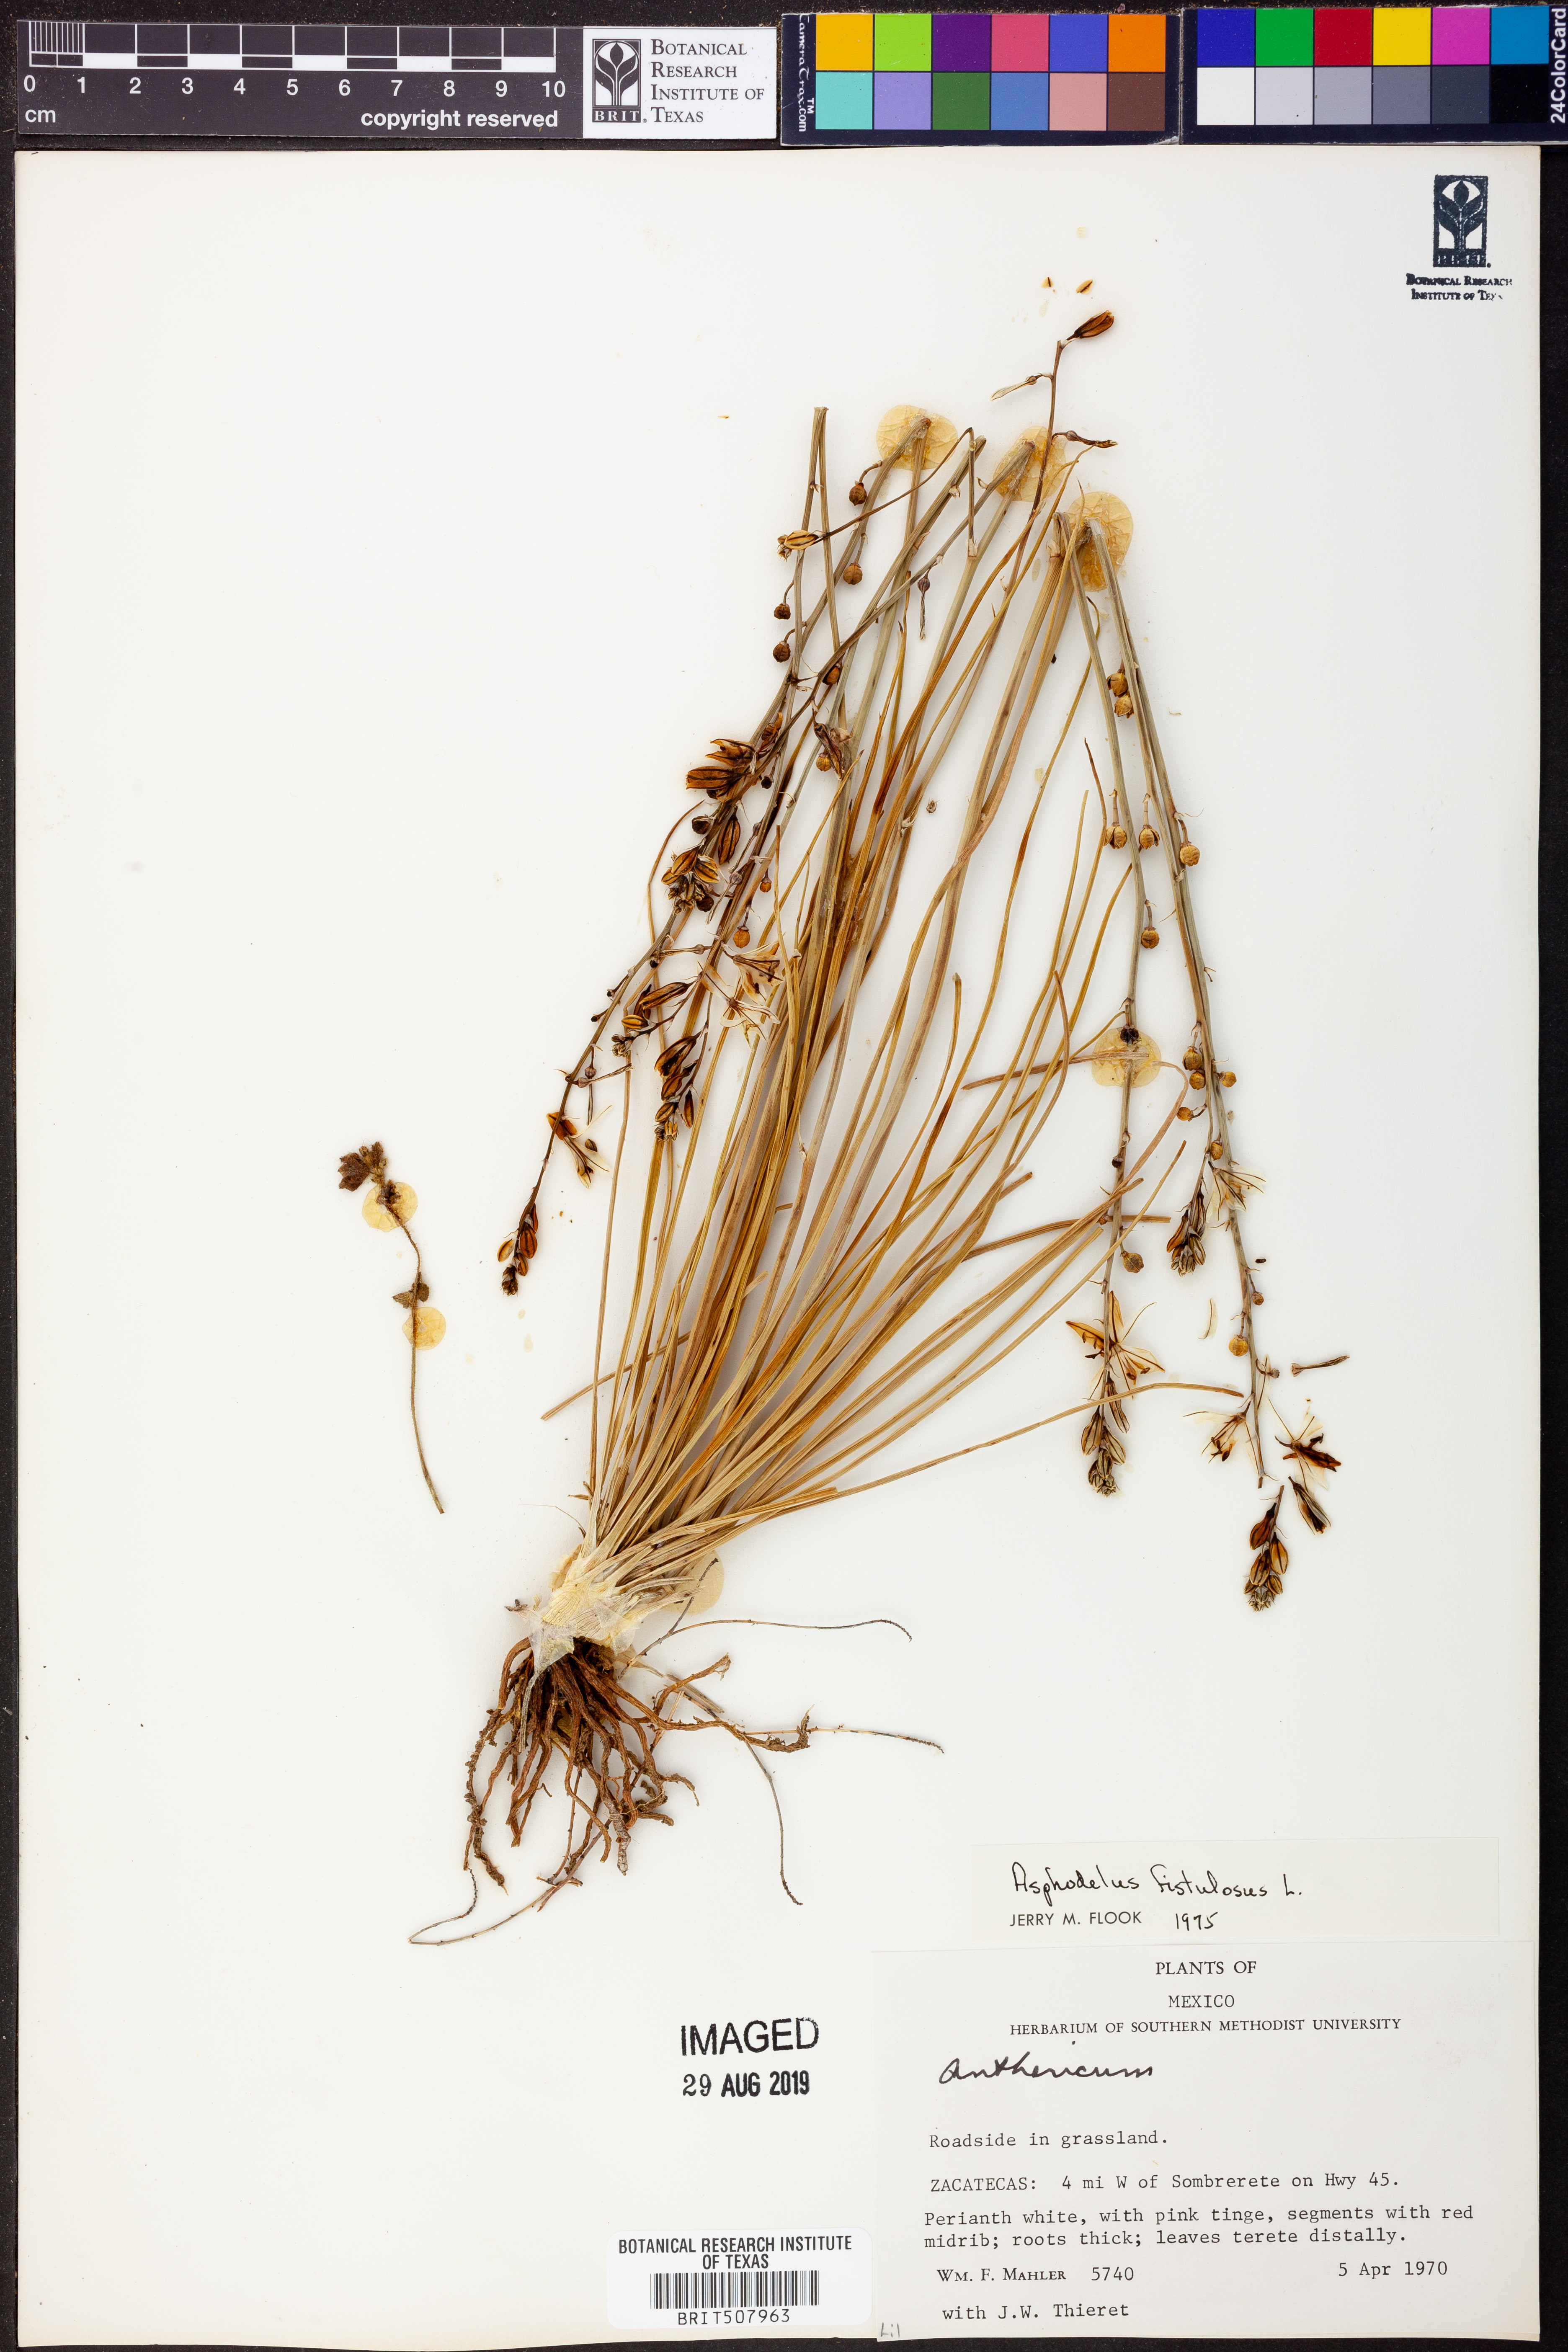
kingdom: Plantae
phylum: Tracheophyta
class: Liliopsida
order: Asparagales
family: Asphodelaceae
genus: Asphodelus
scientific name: Asphodelus fistulosus
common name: Onionweed
